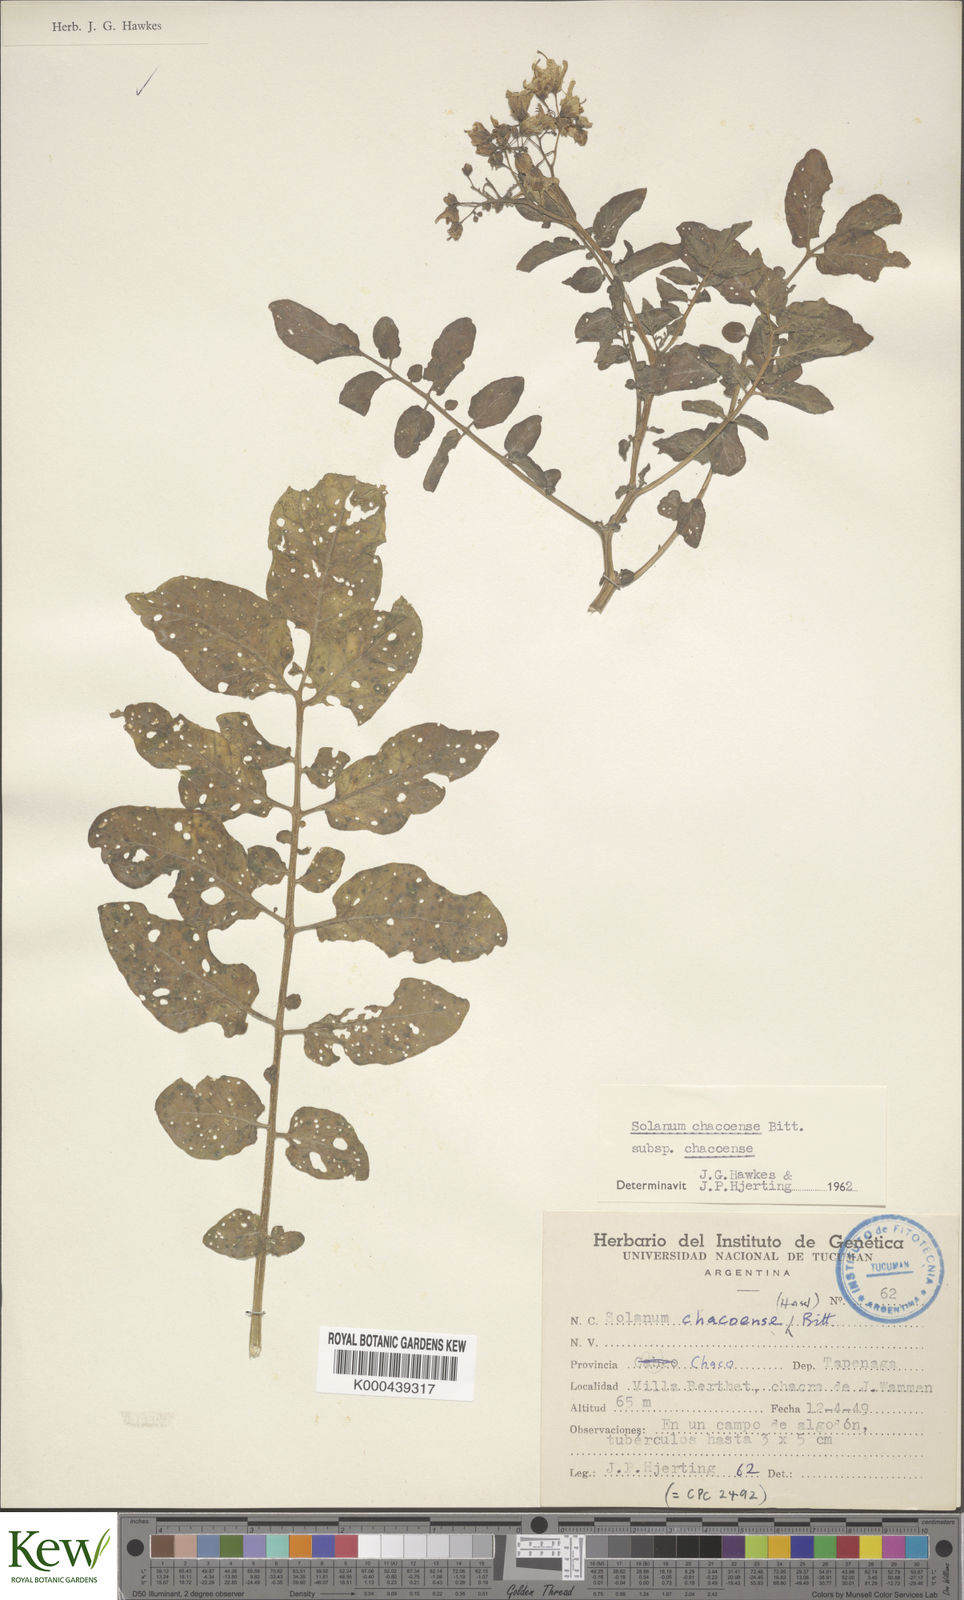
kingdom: Plantae
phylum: Tracheophyta
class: Magnoliopsida
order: Solanales
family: Solanaceae
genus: Solanum
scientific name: Solanum chacoense
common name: Chaco potato
